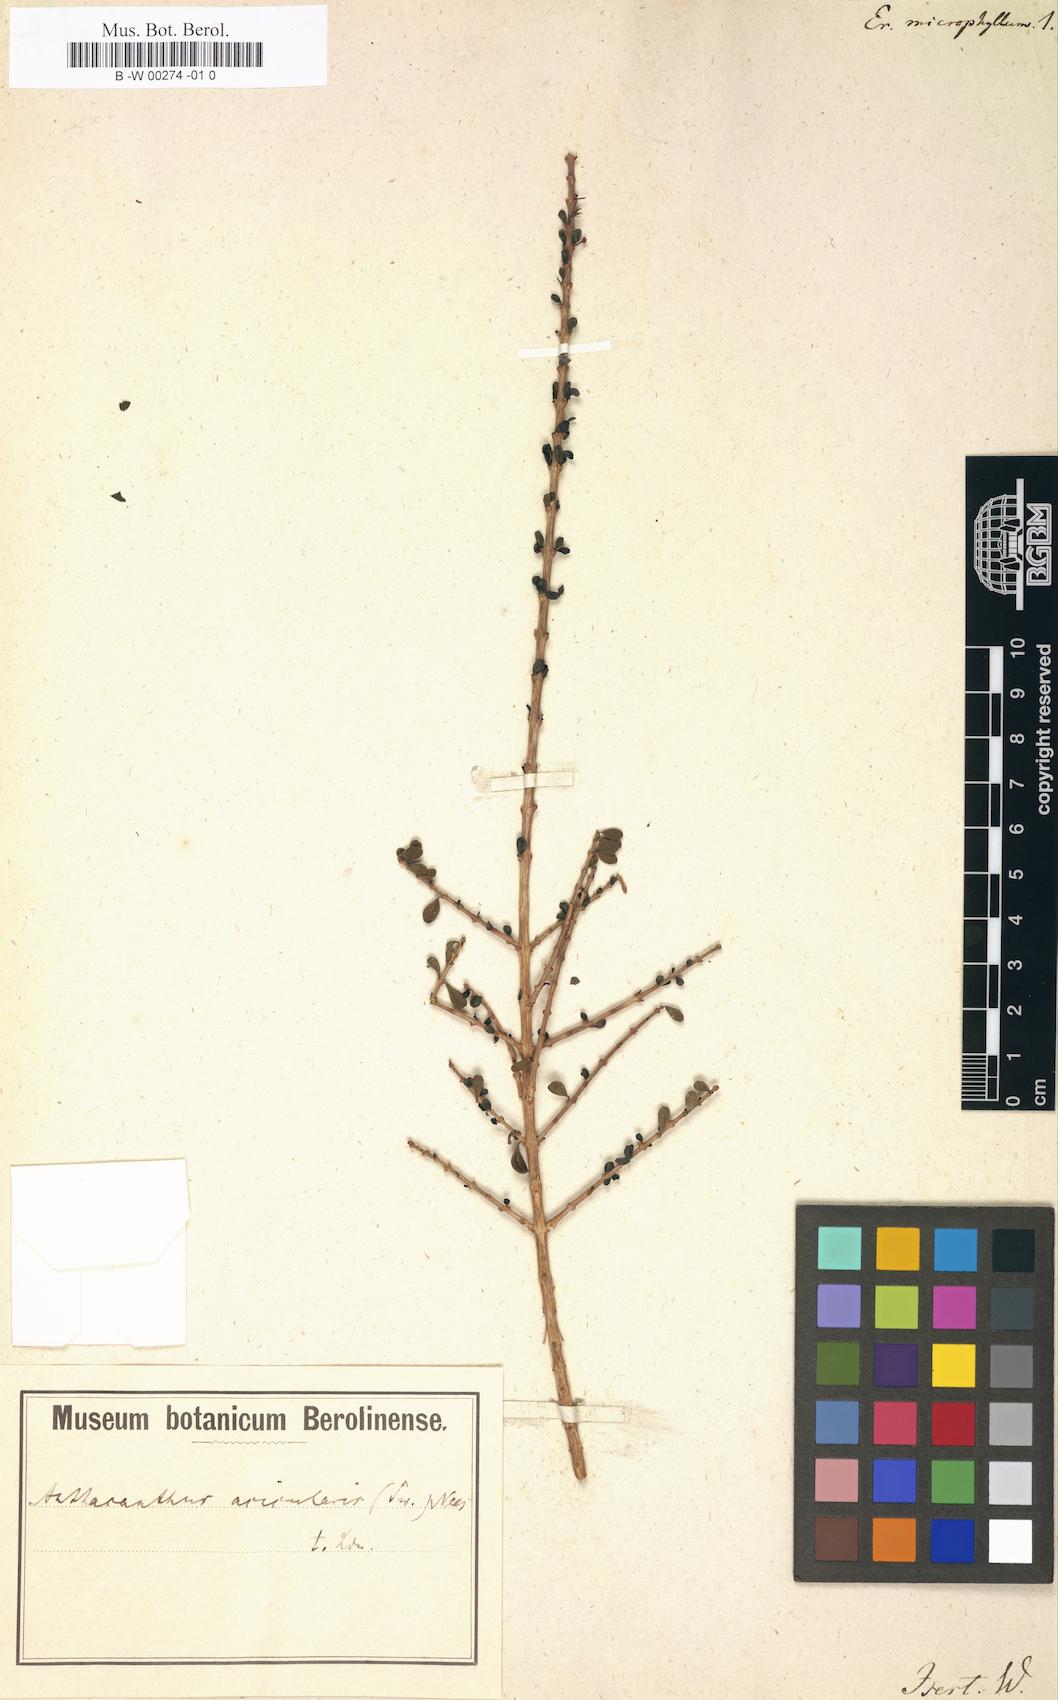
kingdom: Plantae
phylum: Tracheophyta
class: Magnoliopsida
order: Lamiales
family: Acanthaceae
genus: Oplonia
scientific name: Oplonia microphylla
